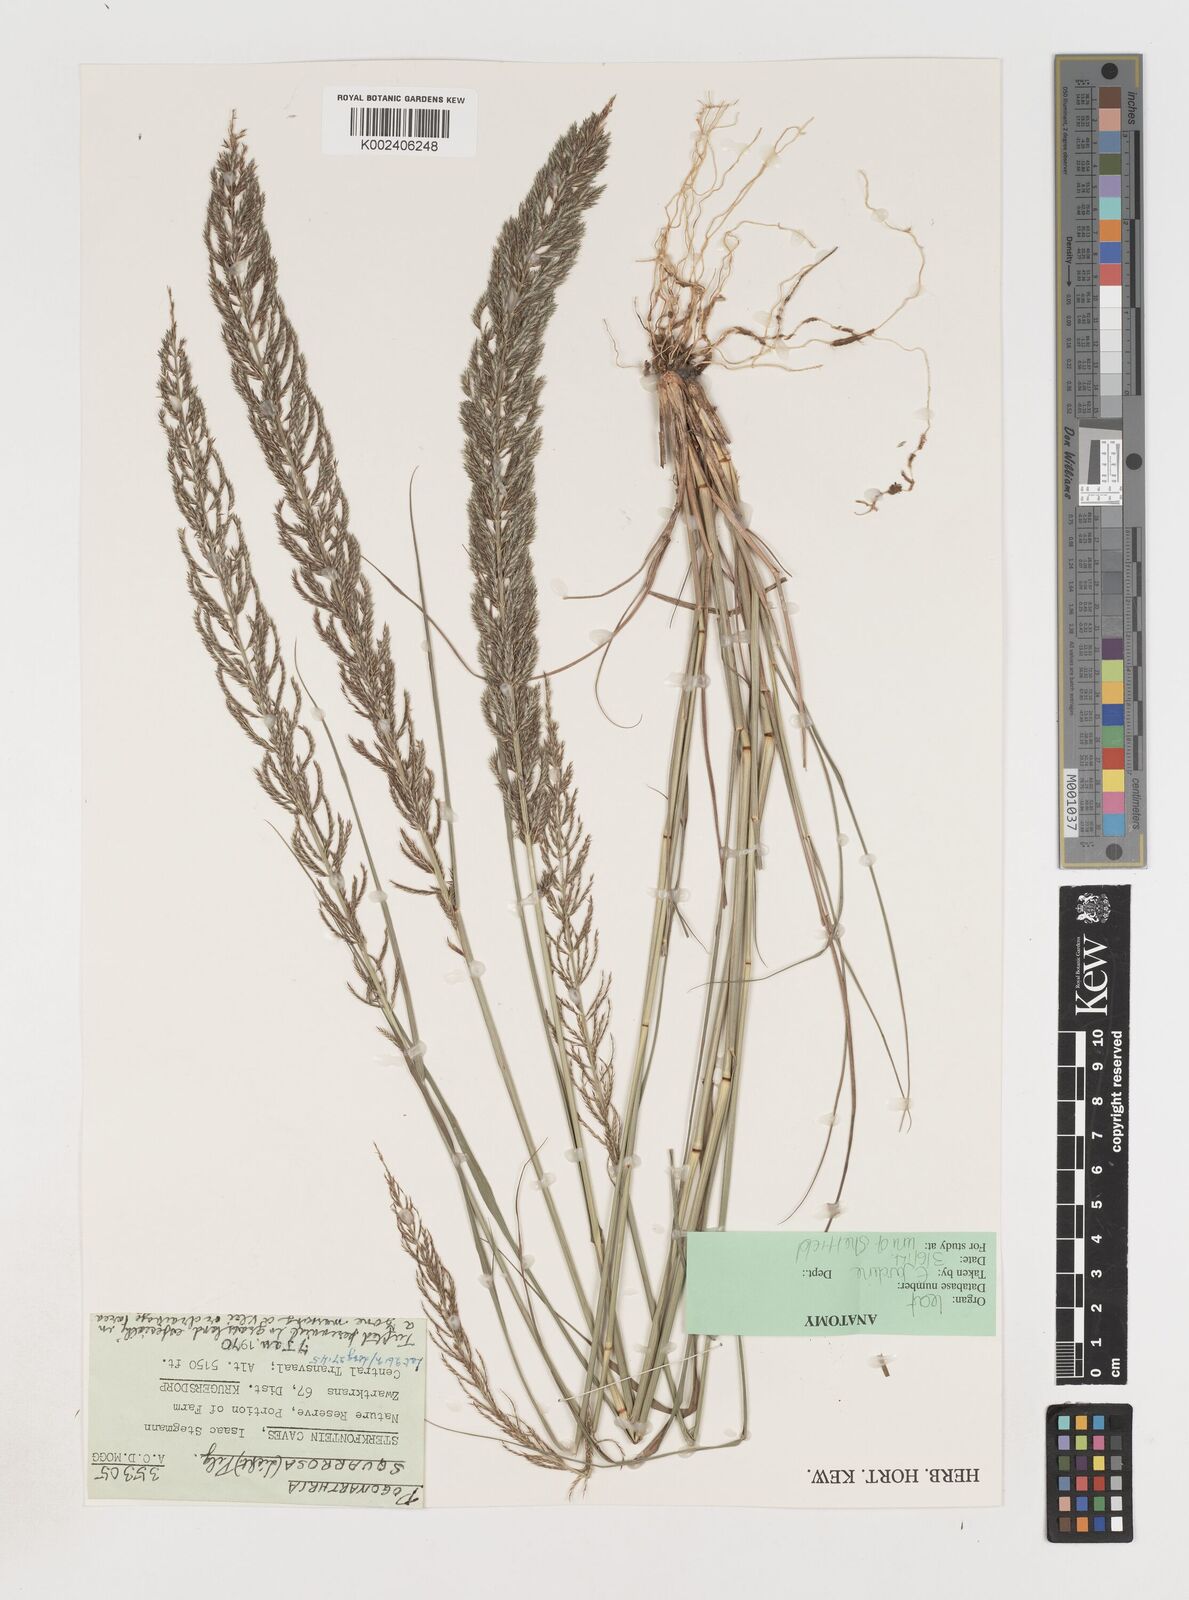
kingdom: Plantae
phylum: Tracheophyta
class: Liliopsida
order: Poales
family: Poaceae
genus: Pogonarthria
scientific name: Pogonarthria squarrosa
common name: Grass
